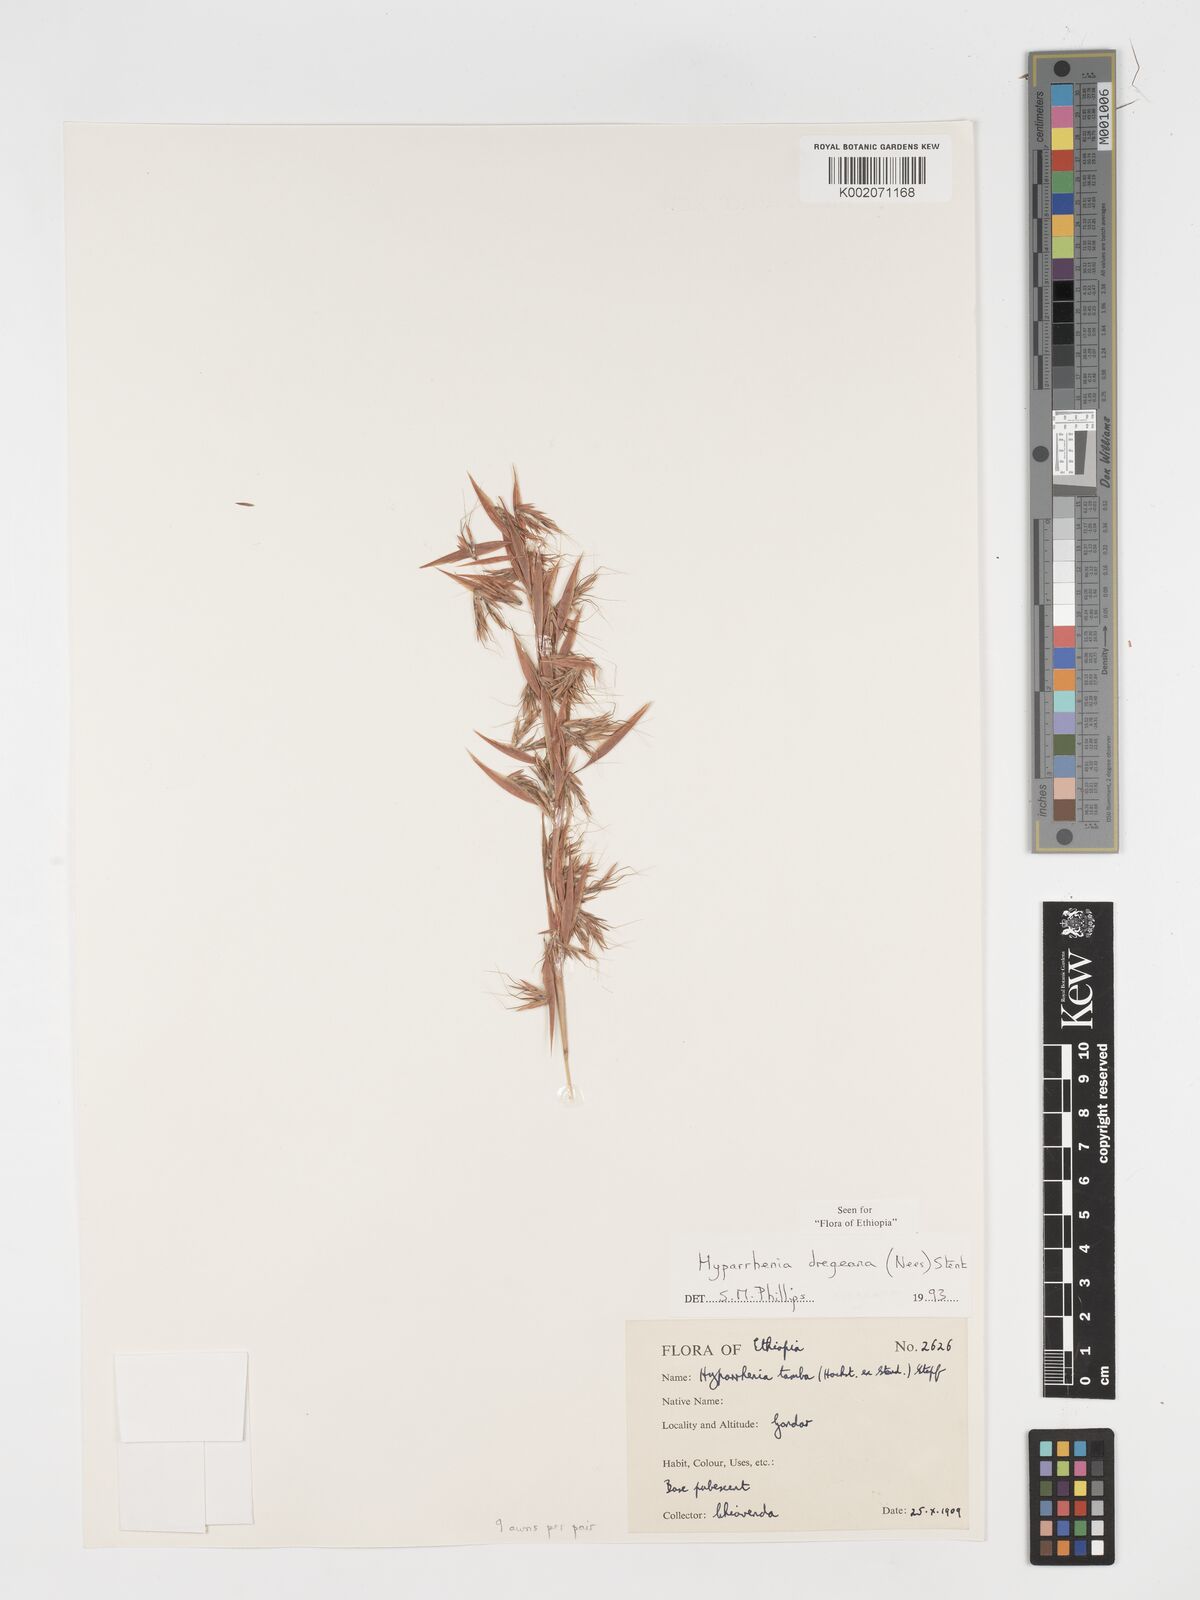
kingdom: Plantae
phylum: Tracheophyta
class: Liliopsida
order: Poales
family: Poaceae
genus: Hyparrhenia
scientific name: Hyparrhenia dregeana
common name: Silky thatching grass
